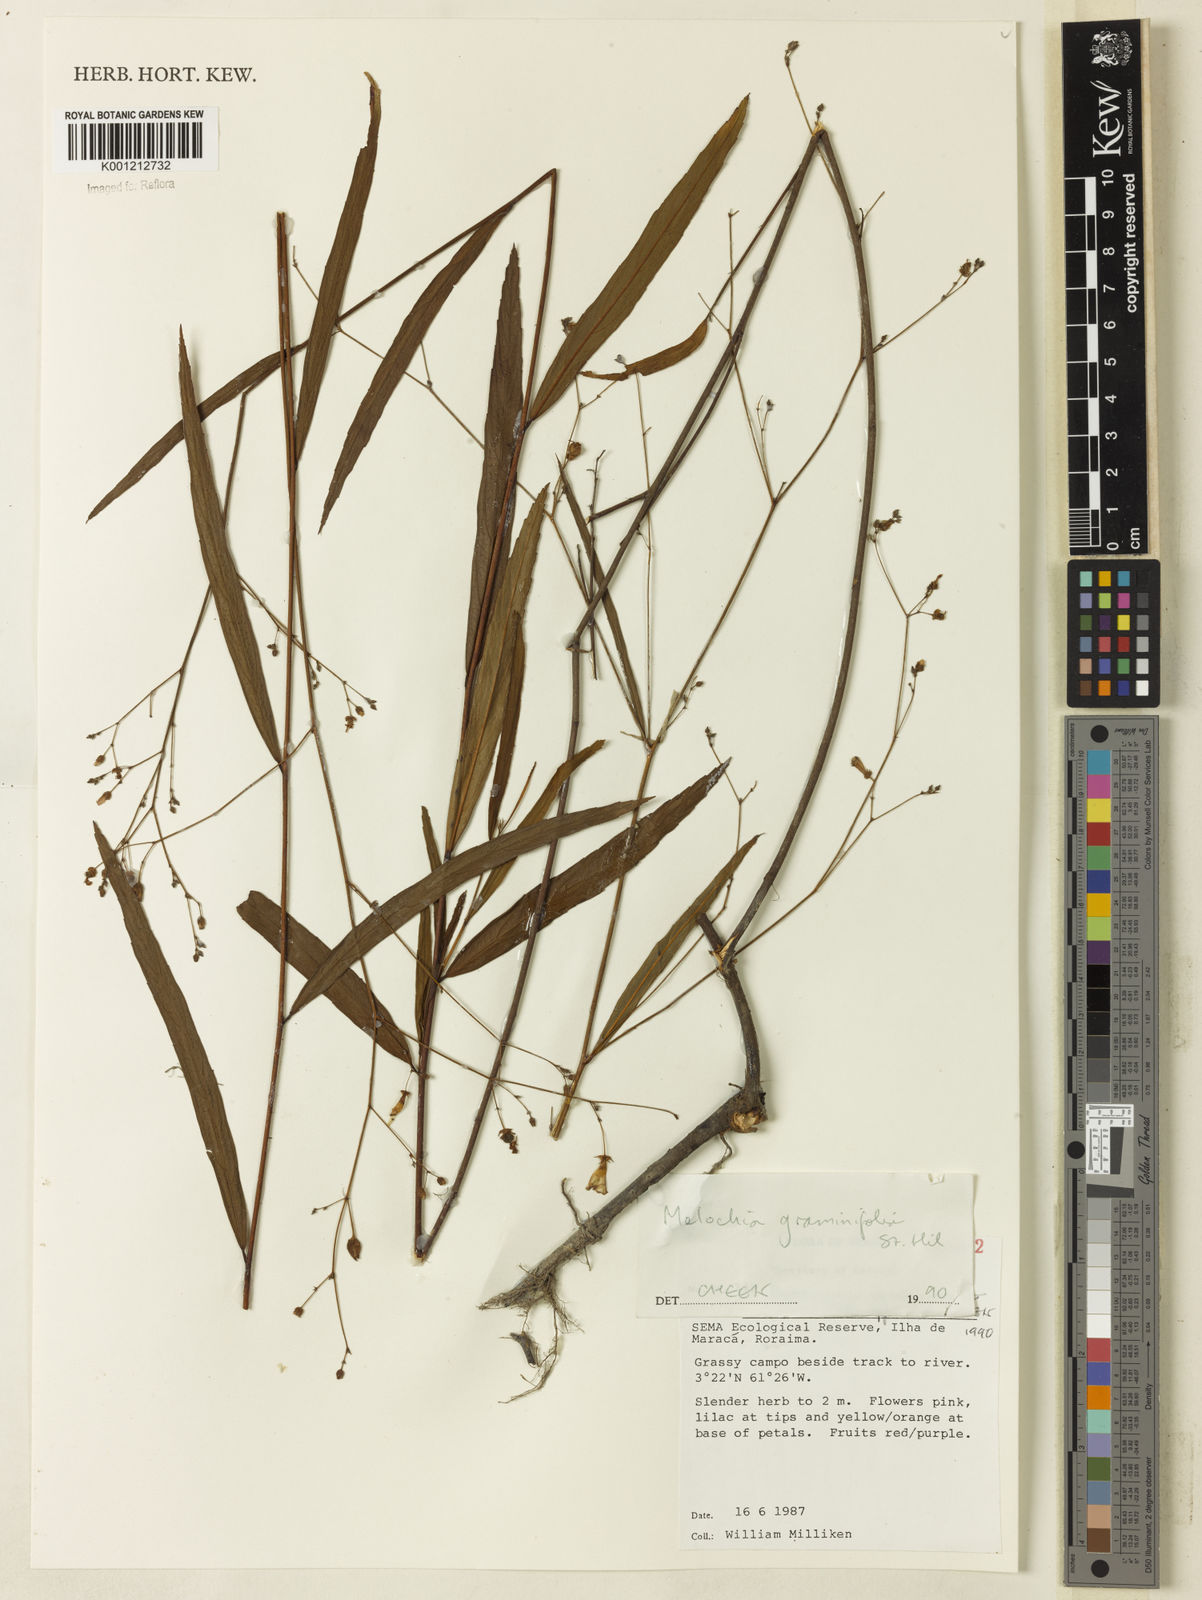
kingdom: Plantae
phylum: Tracheophyta
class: Magnoliopsida
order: Malvales
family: Malvaceae
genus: Melochia
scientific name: Melochia graminifolia
